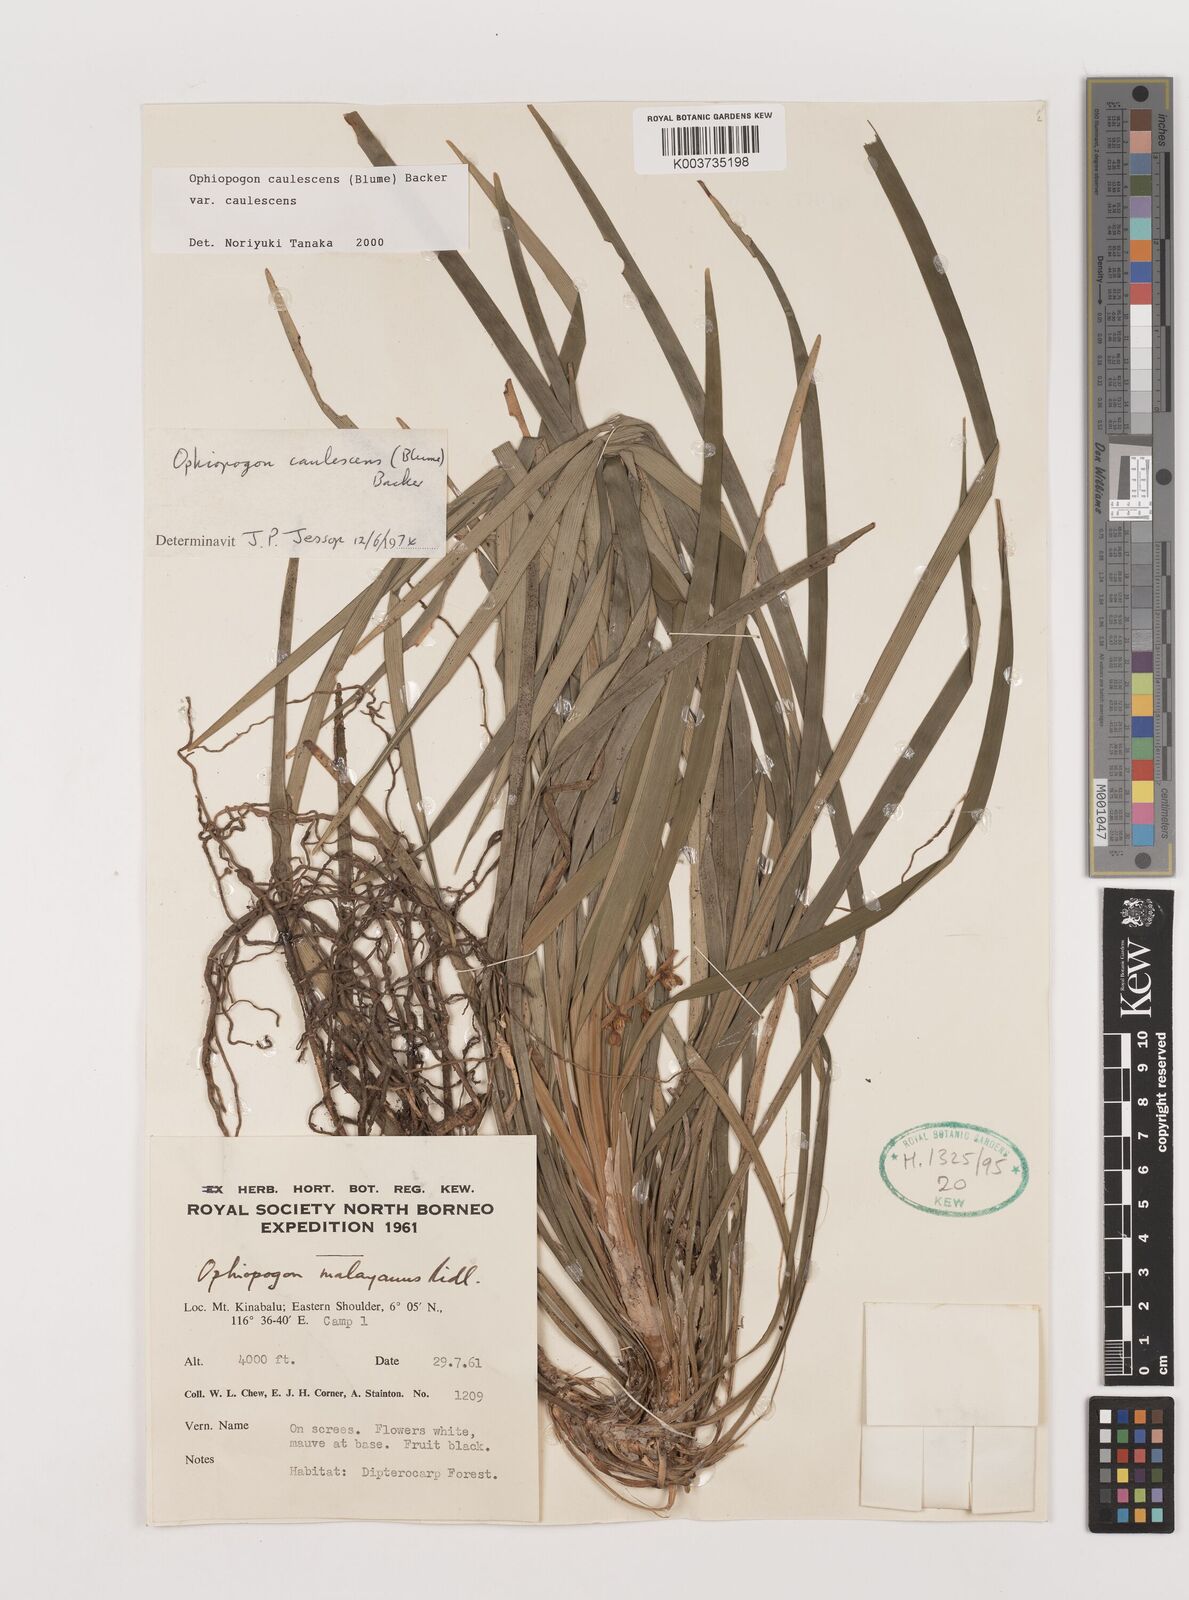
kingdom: Plantae
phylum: Tracheophyta
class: Liliopsida
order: Asparagales
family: Asparagaceae
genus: Ophiopogon
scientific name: Ophiopogon caulescens
